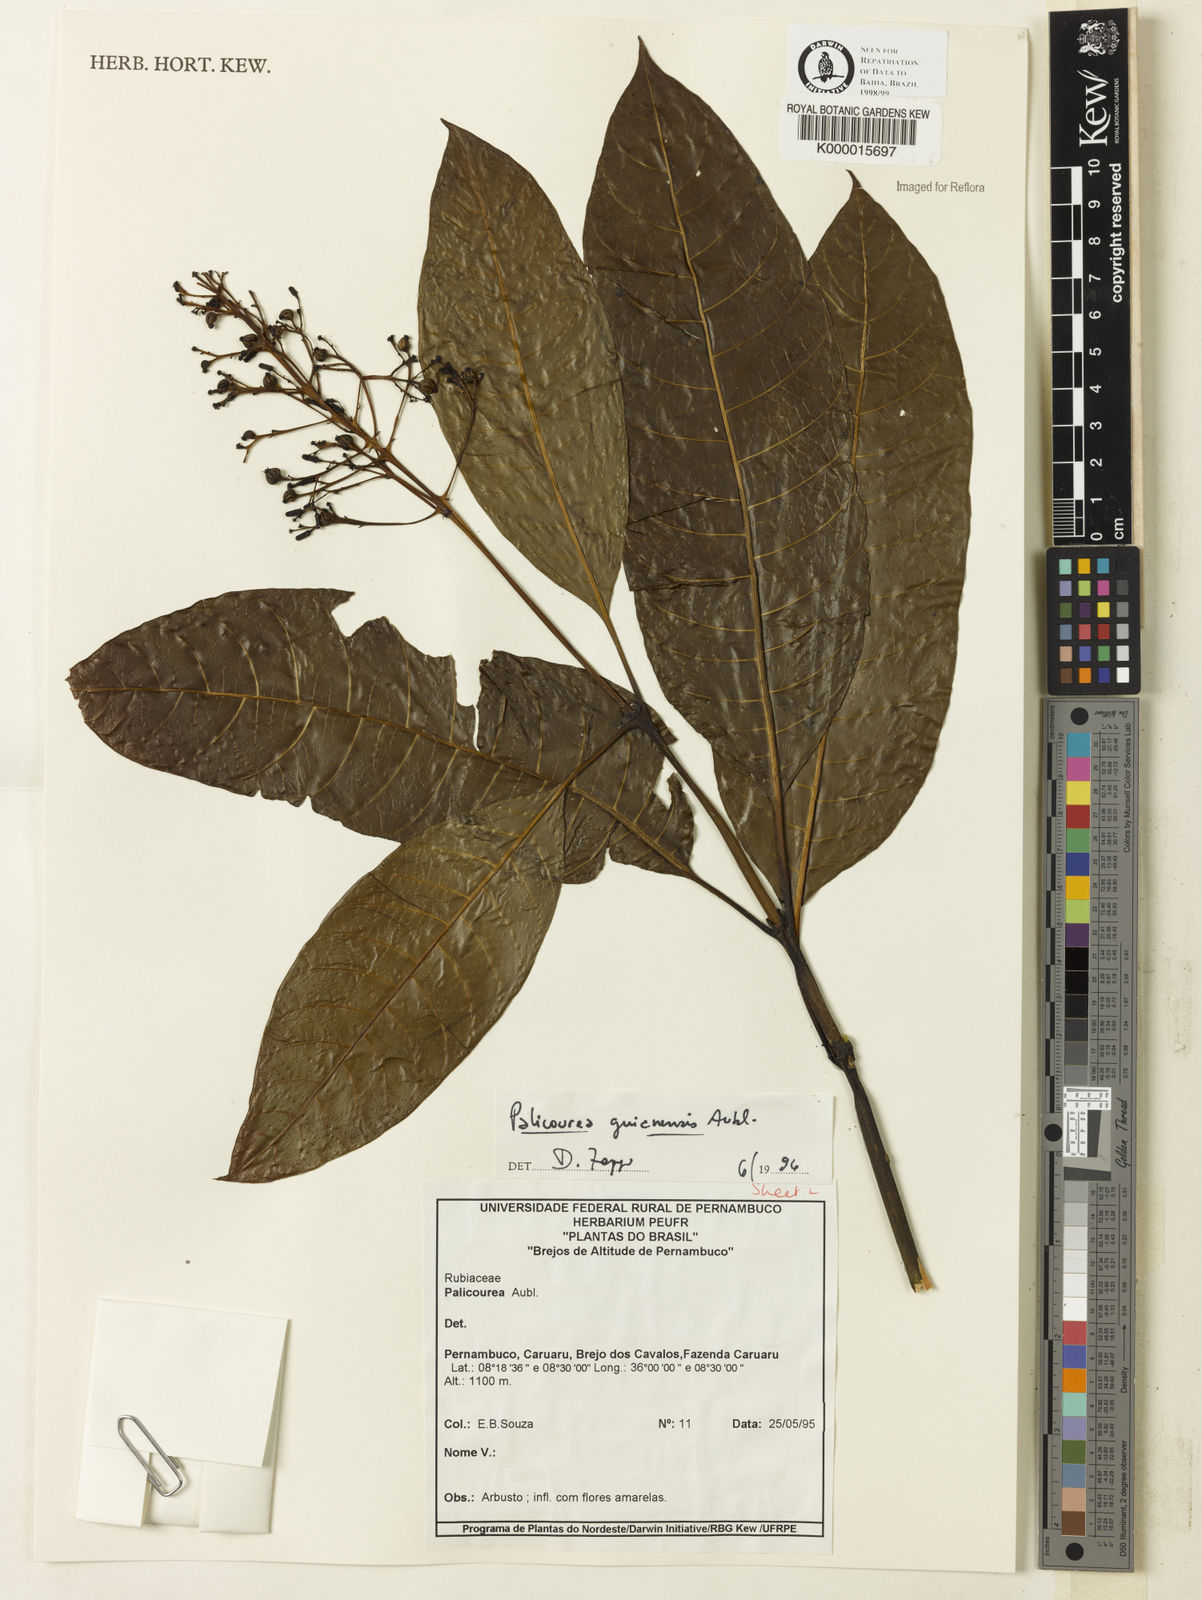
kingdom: Plantae
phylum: Tracheophyta
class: Magnoliopsida
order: Gentianales
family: Rubiaceae
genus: Palicourea
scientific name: Palicourea guianensis
